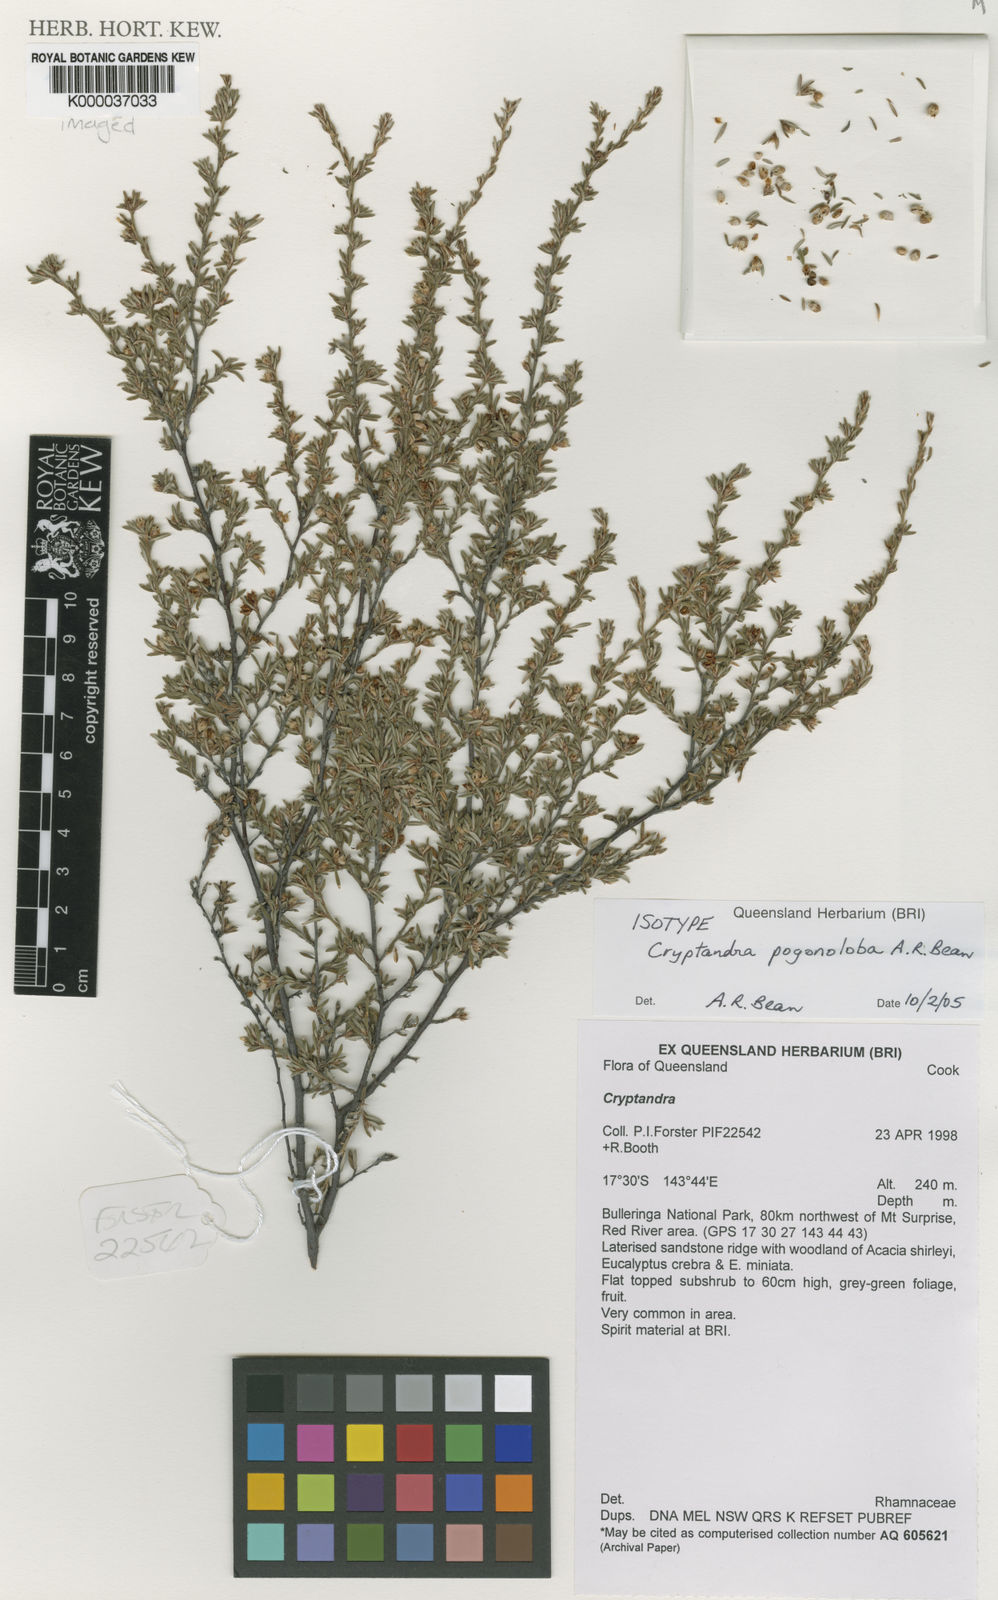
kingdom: Plantae
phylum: Tracheophyta
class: Magnoliopsida
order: Rosales
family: Rhamnaceae
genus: Cryptandra
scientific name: Cryptandra pogonoloba
